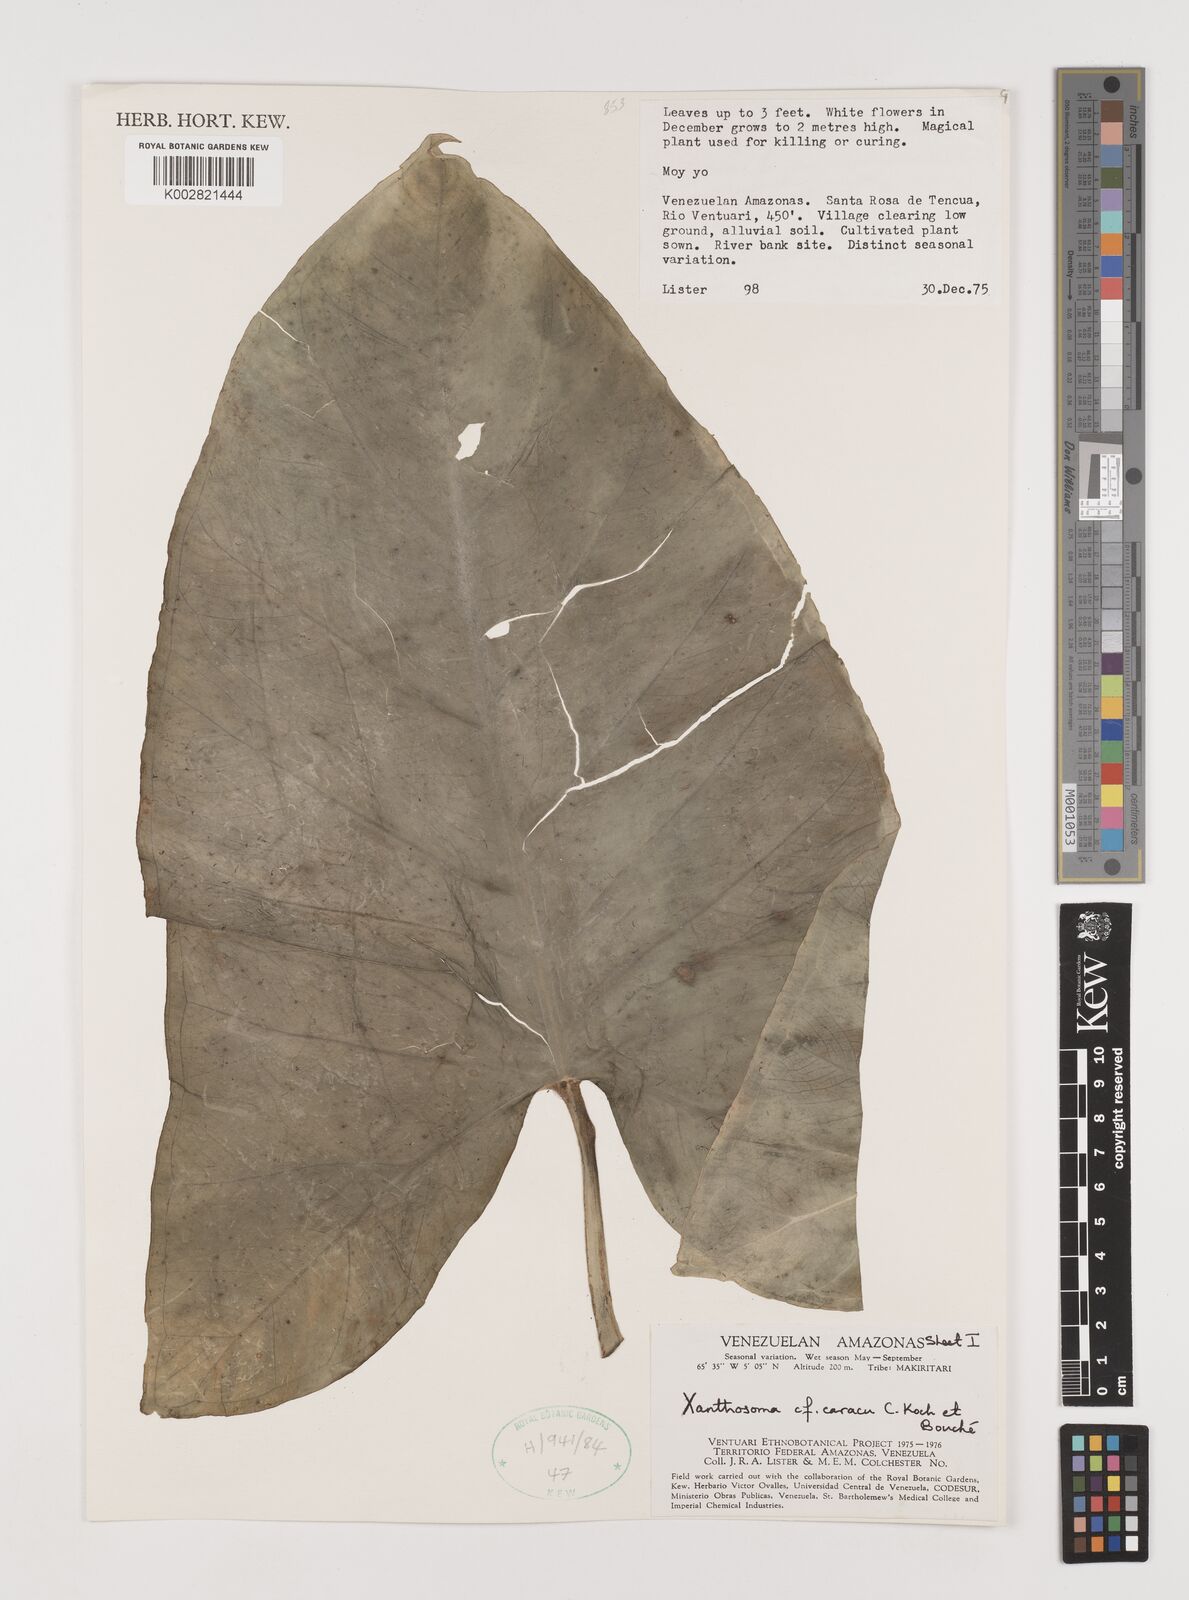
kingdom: Plantae
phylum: Tracheophyta
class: Liliopsida
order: Alismatales
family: Araceae
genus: Xanthosoma
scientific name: Xanthosoma caracu
